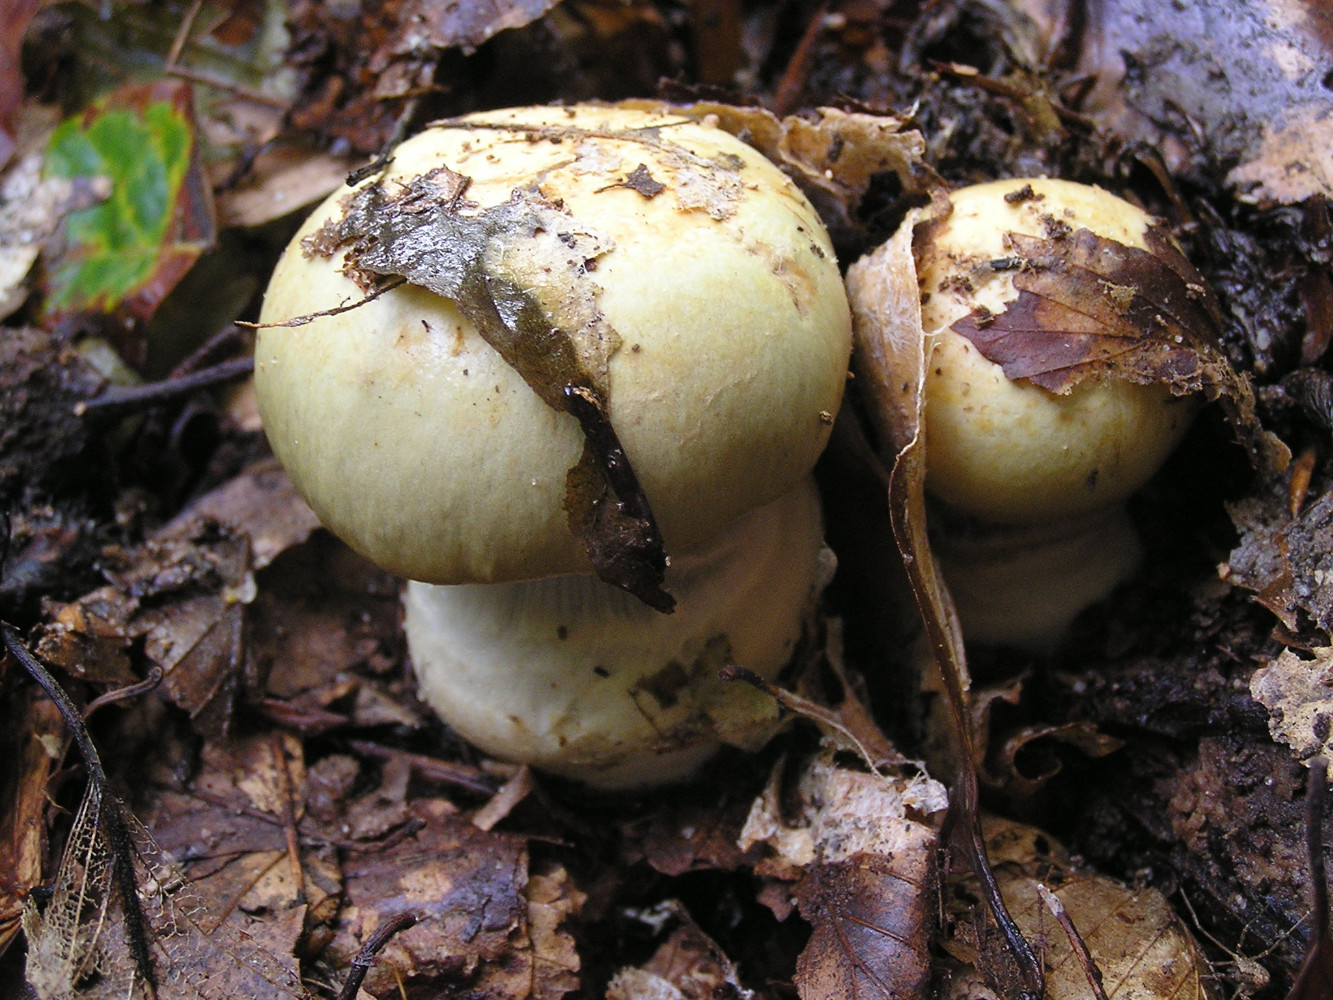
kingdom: Fungi
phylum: Basidiomycota
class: Agaricomycetes
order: Agaricales
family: Cortinariaceae
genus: Cortinarius
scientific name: Cortinarius anserinus
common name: bøge-slørhat
